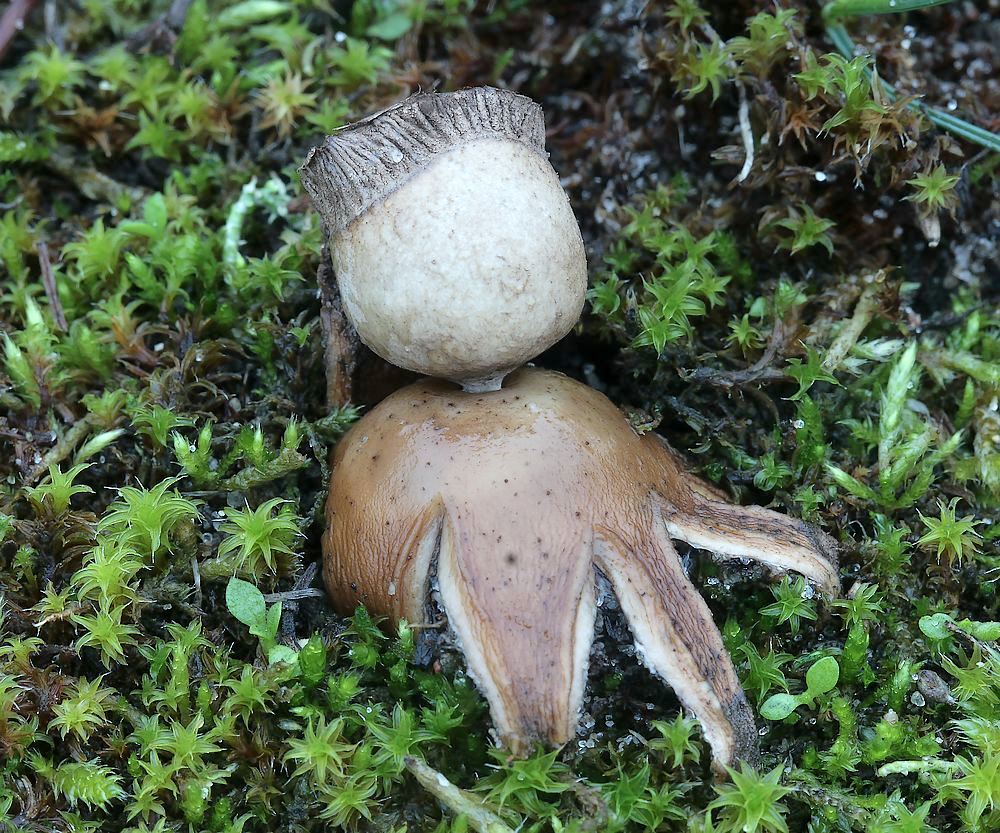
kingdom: Fungi
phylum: Basidiomycota
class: Agaricomycetes
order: Geastrales
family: Geastraceae
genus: Geastrum
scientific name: Geastrum striatum
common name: dværg-stjernebold
